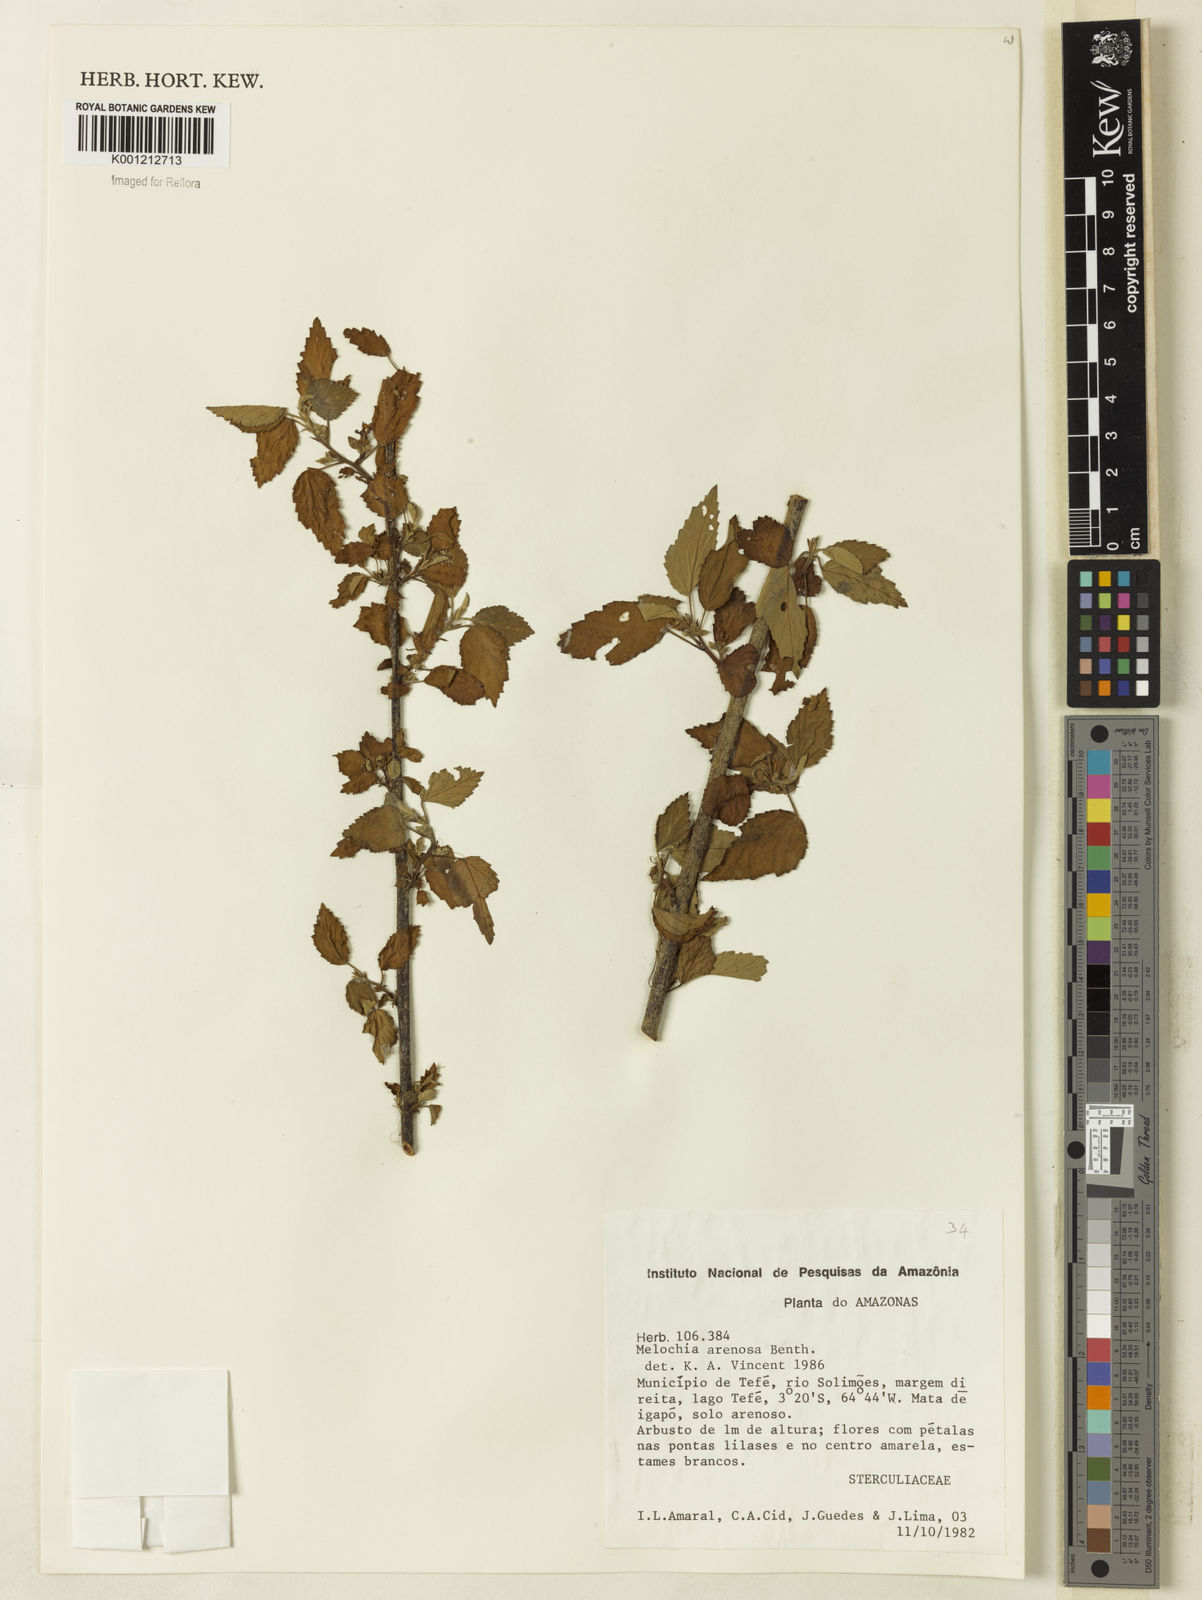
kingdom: Plantae
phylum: Tracheophyta
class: Magnoliopsida
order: Malvales
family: Malvaceae
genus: Melochia
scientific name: Melochia arenosa
